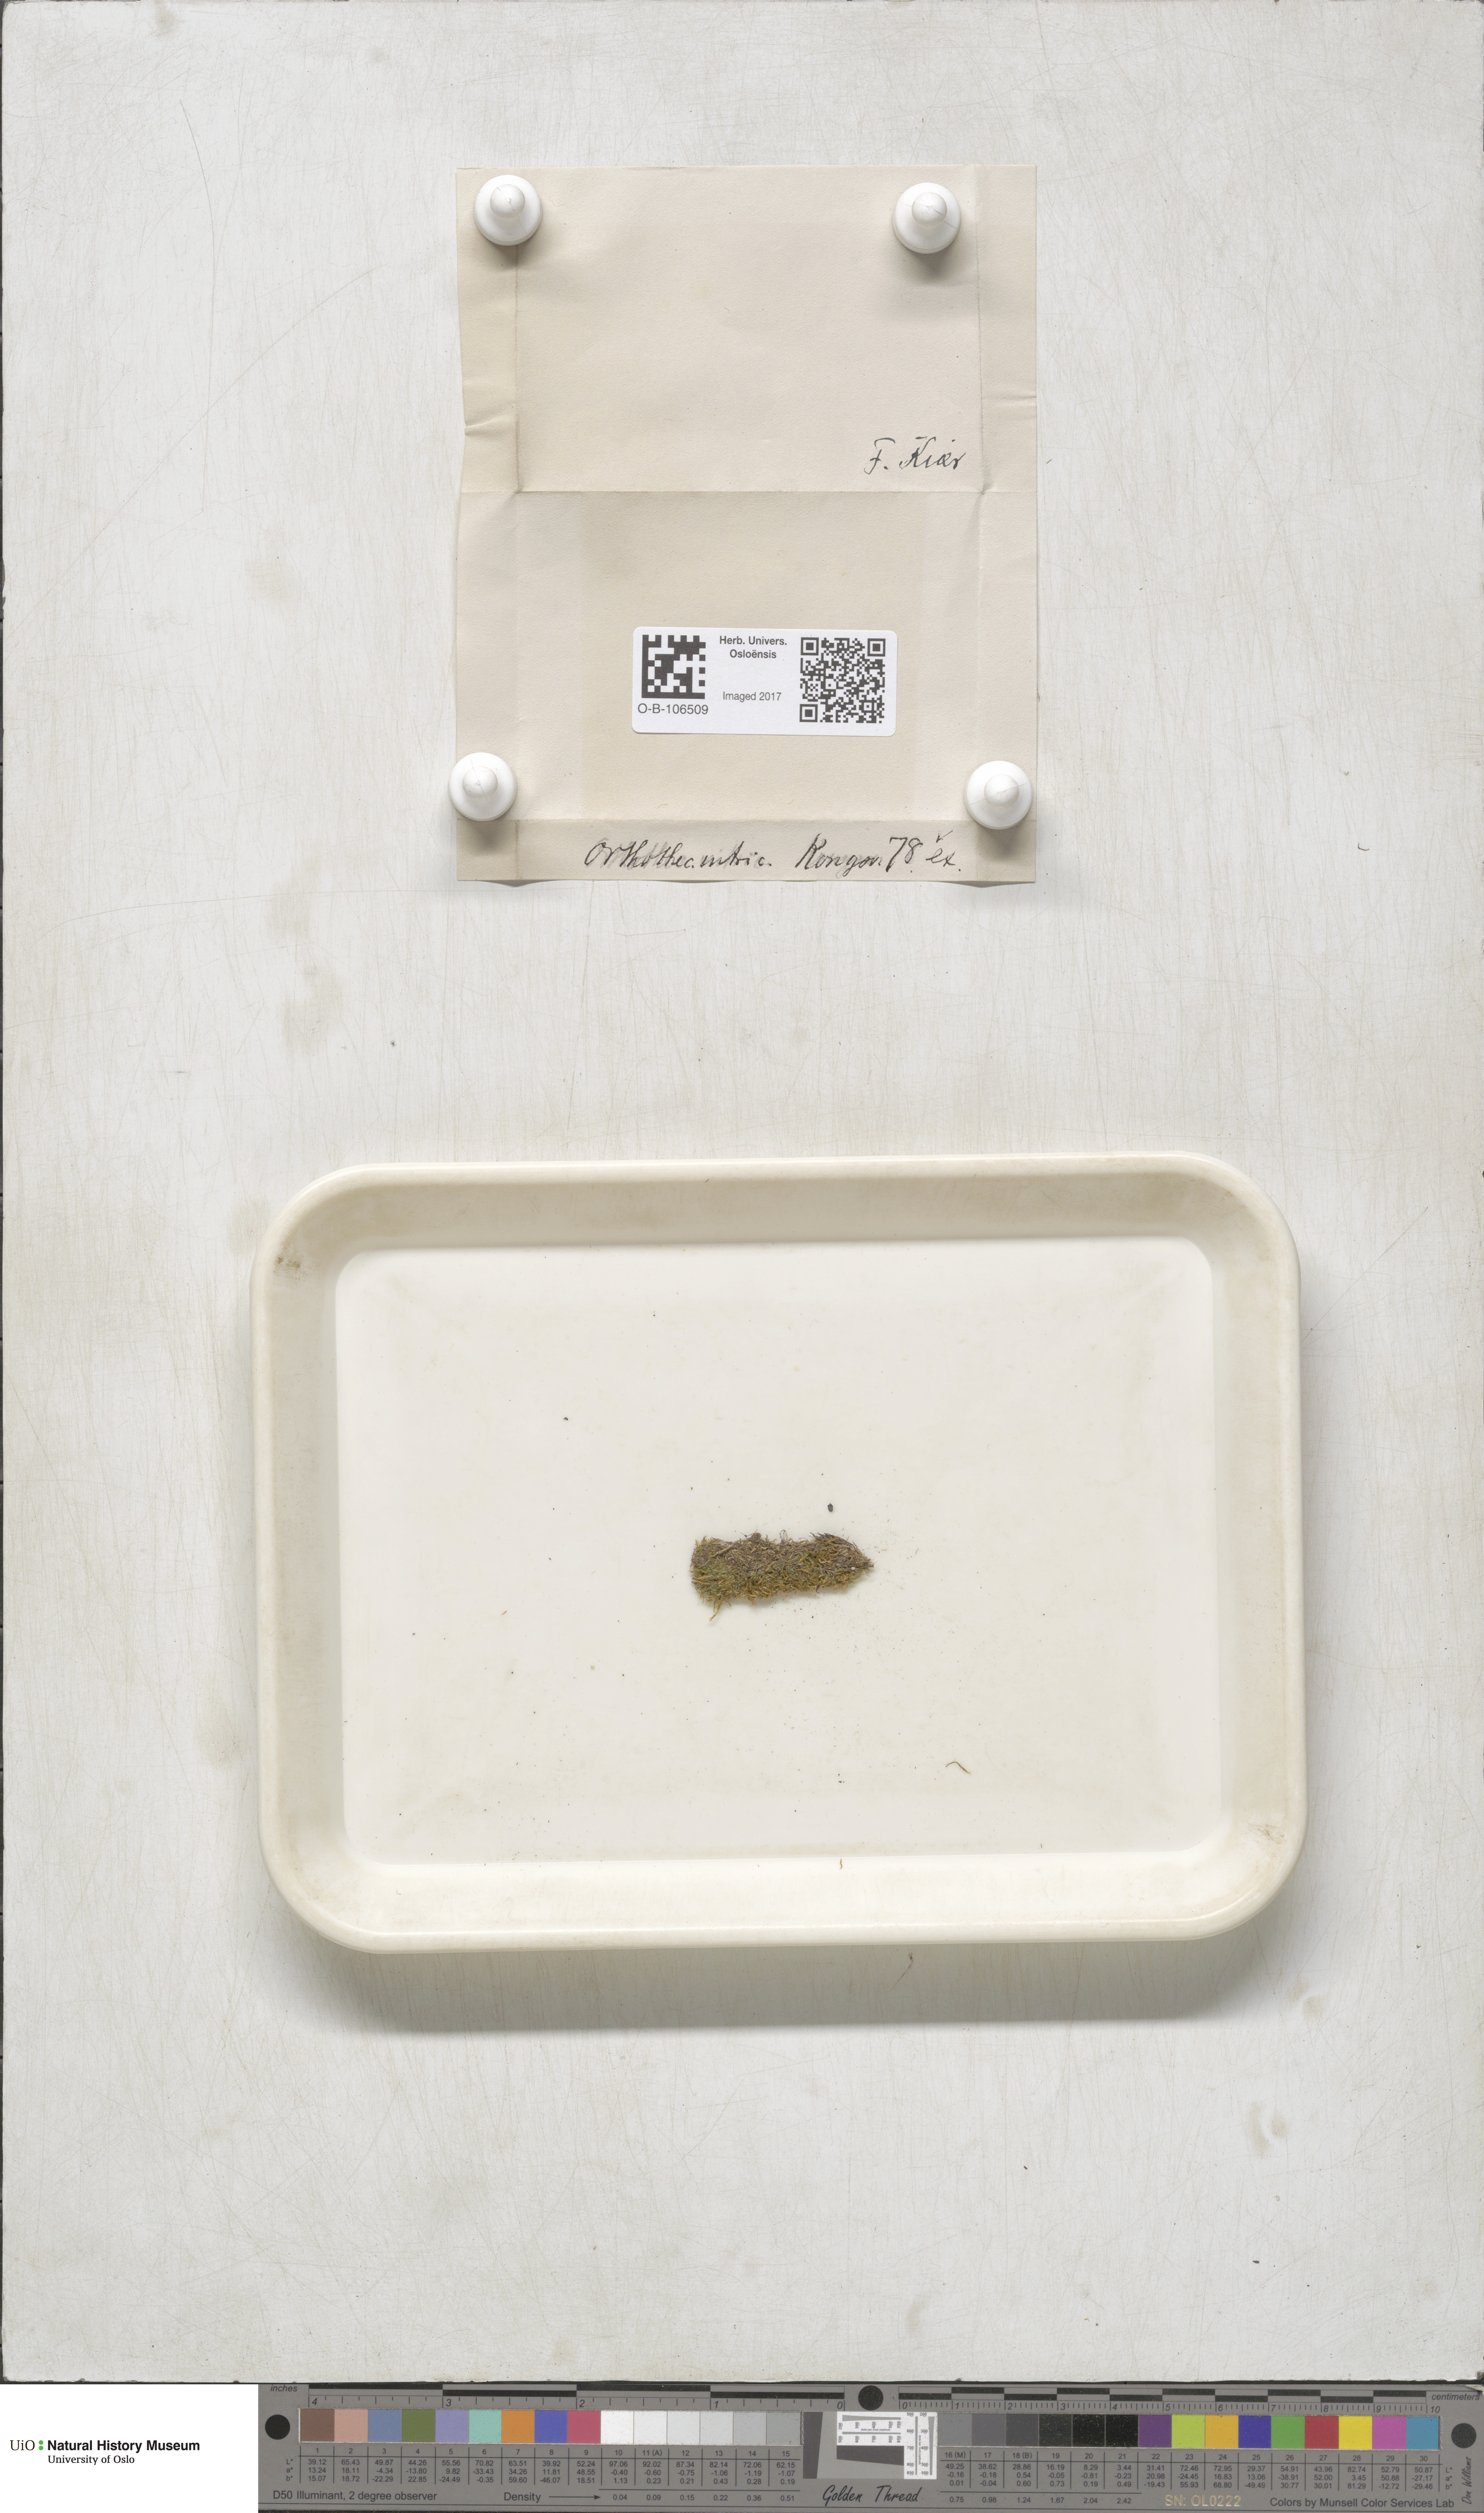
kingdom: Plantae
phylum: Bryophyta
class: Bryopsida
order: Hypnales
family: Plagiotheciaceae
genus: Orthothecium
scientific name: Orthothecium intricatum
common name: Fine-leaved erect-capsule moss
